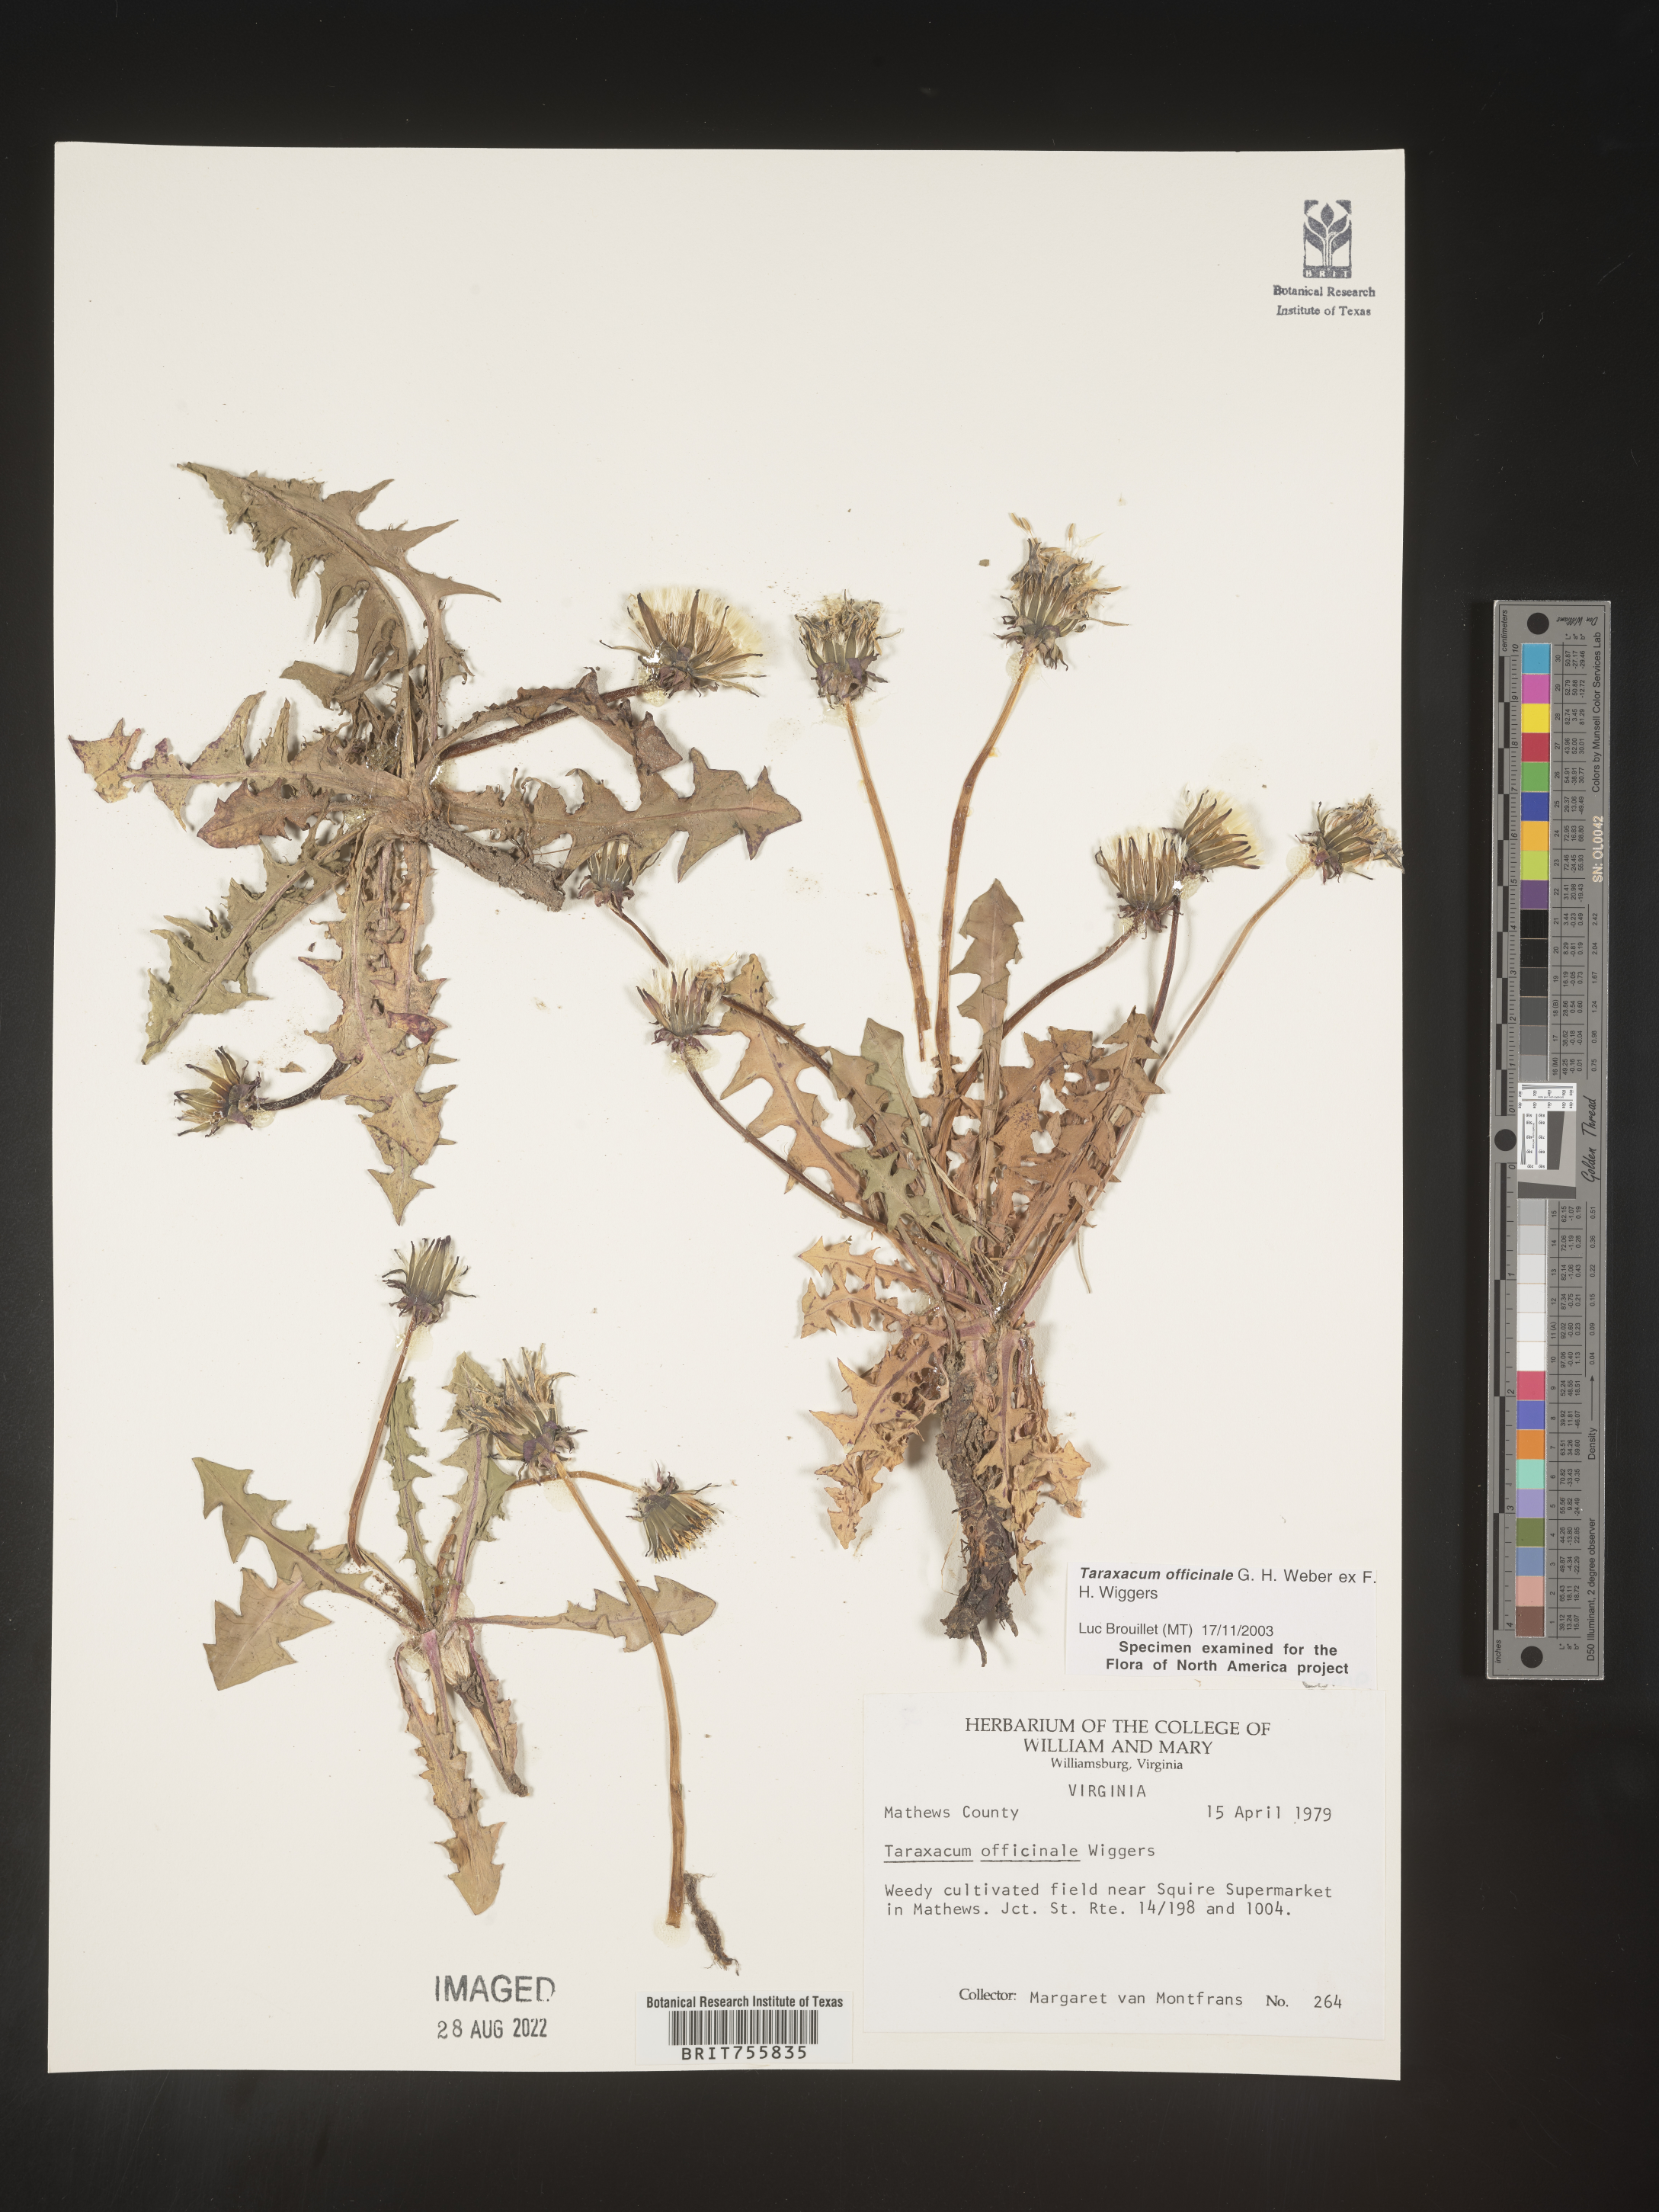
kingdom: Plantae
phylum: Tracheophyta
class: Magnoliopsida
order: Asterales
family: Asteraceae
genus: Taraxacum
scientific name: Taraxacum officinale
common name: Common dandelion
